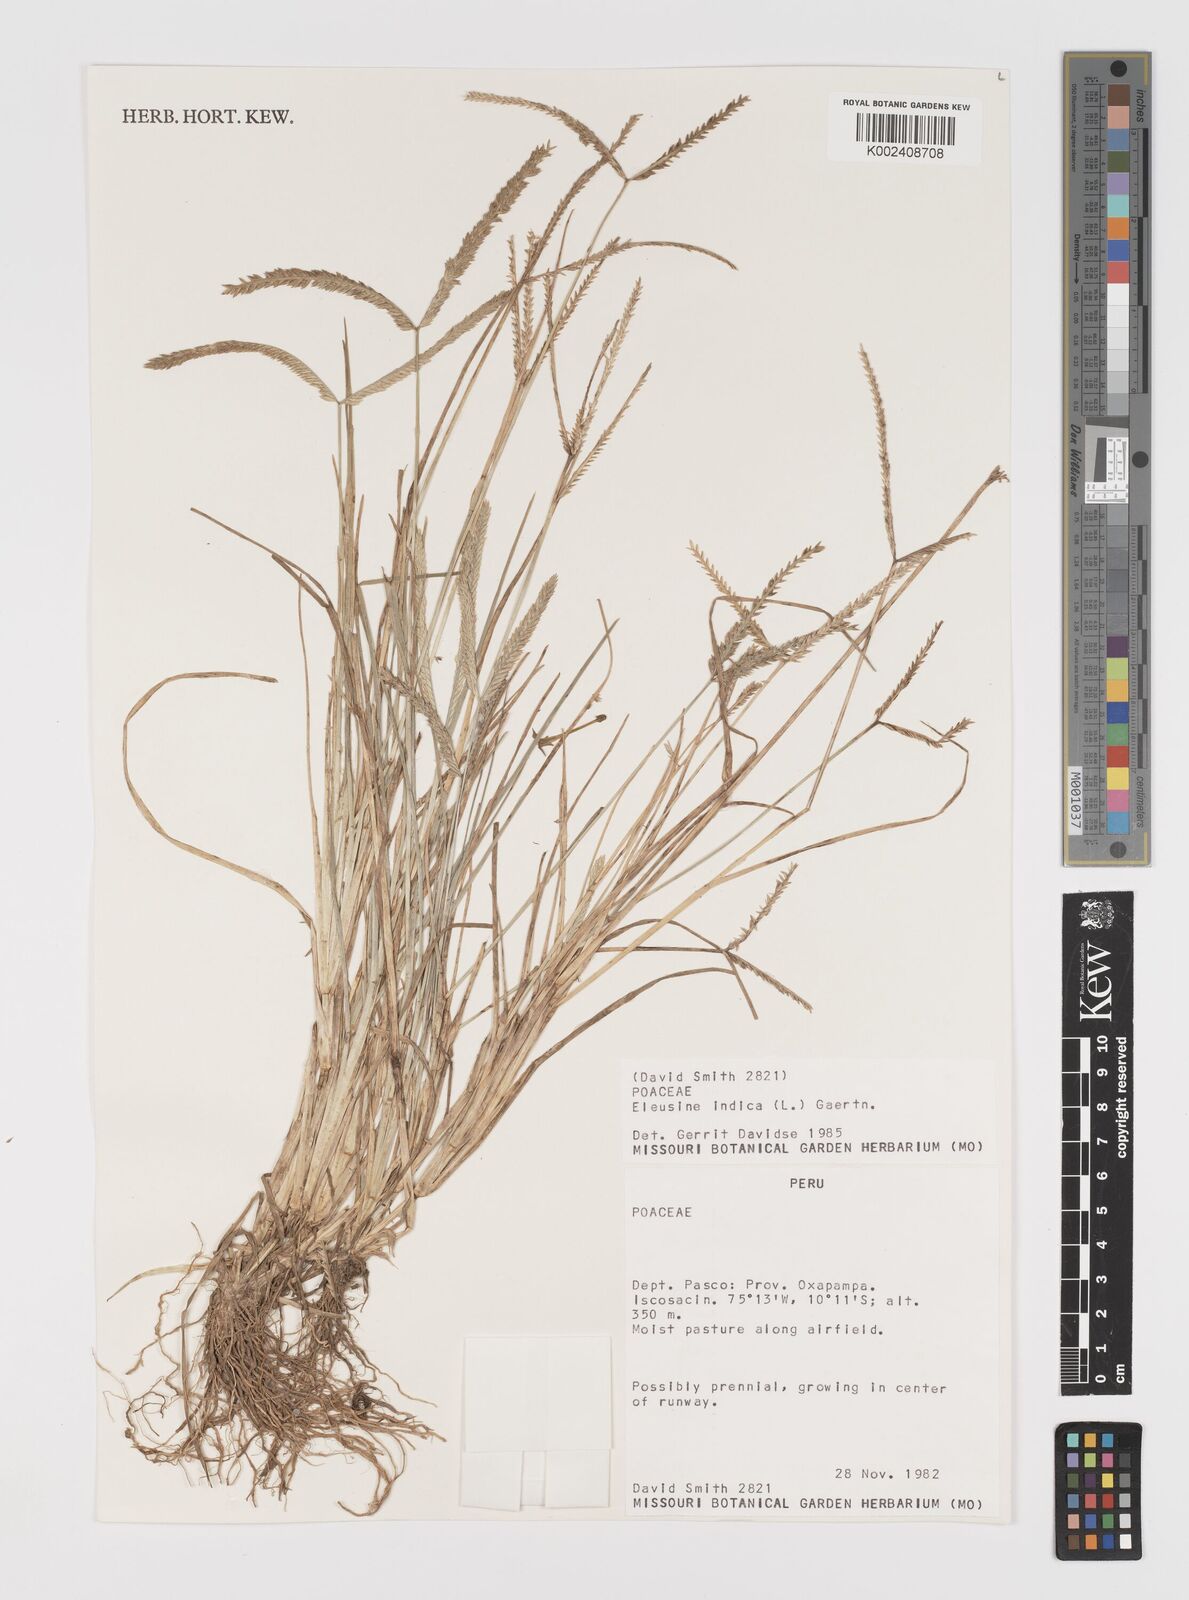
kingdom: Plantae
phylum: Tracheophyta
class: Liliopsida
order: Poales
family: Poaceae
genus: Eleusine
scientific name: Eleusine indica
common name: Yard-grass
